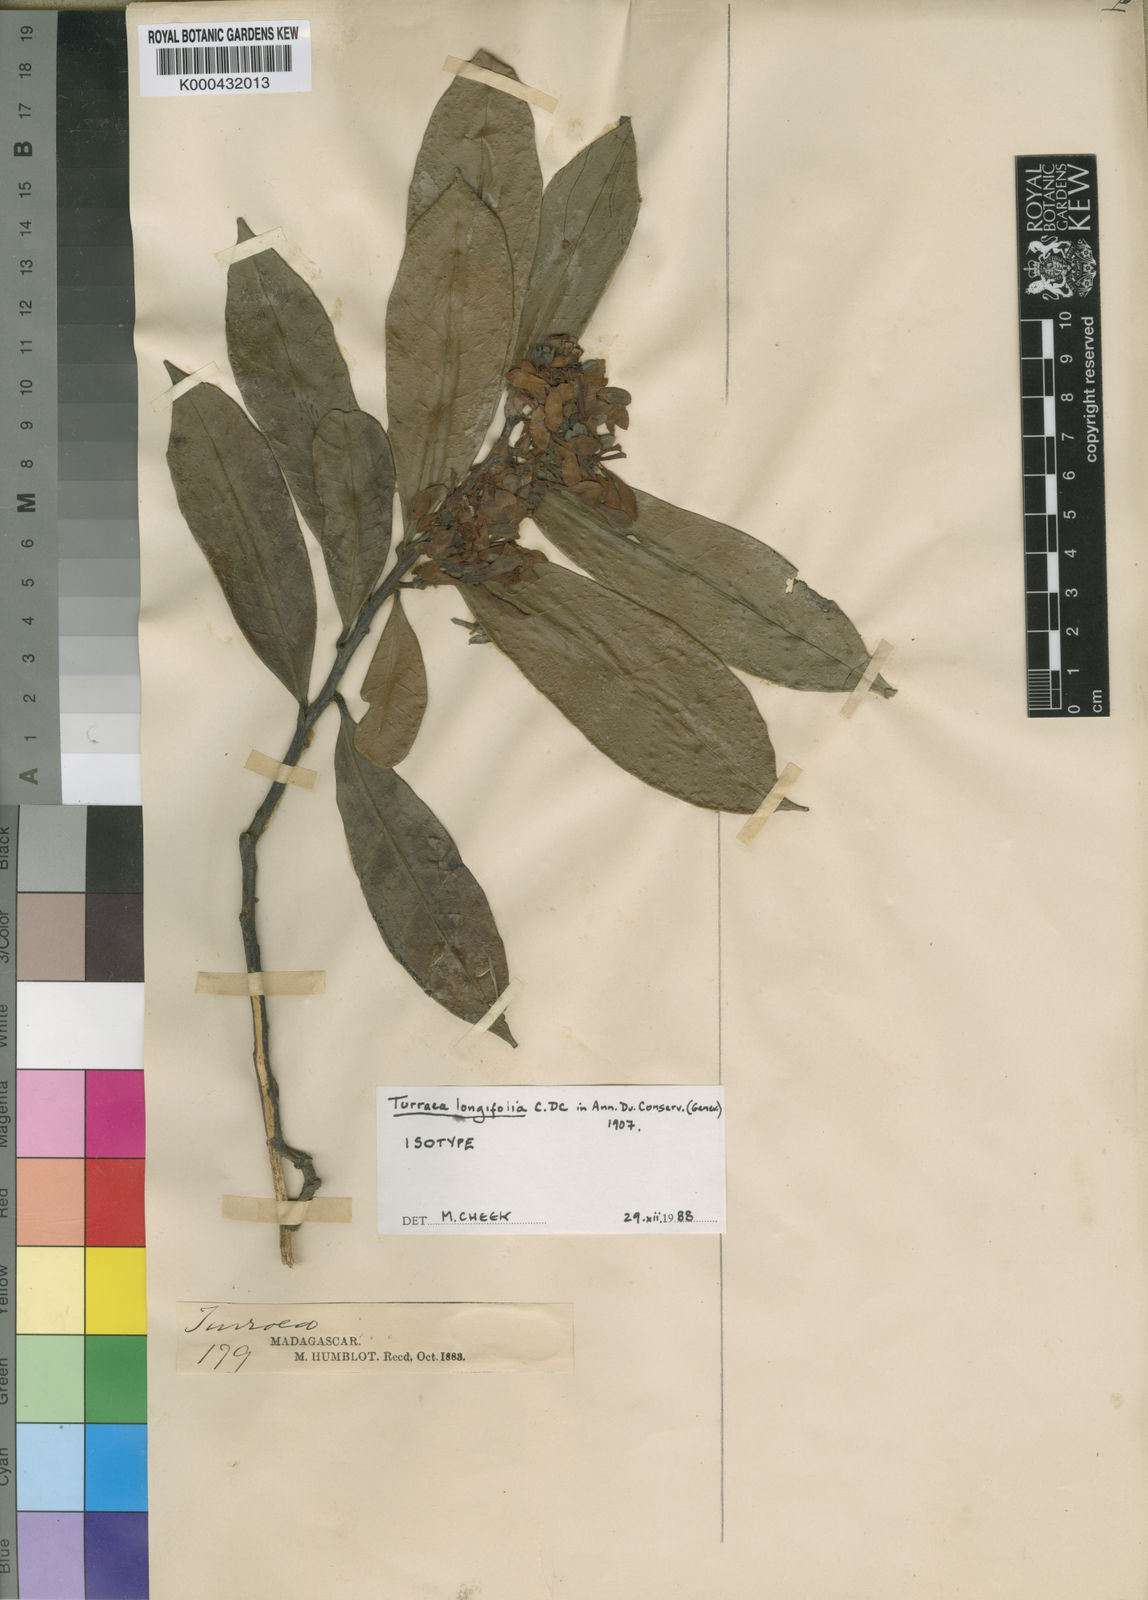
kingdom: Plantae
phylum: Tracheophyta
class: Magnoliopsida
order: Sapindales
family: Meliaceae
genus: Turraea
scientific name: Turraea longifolia
